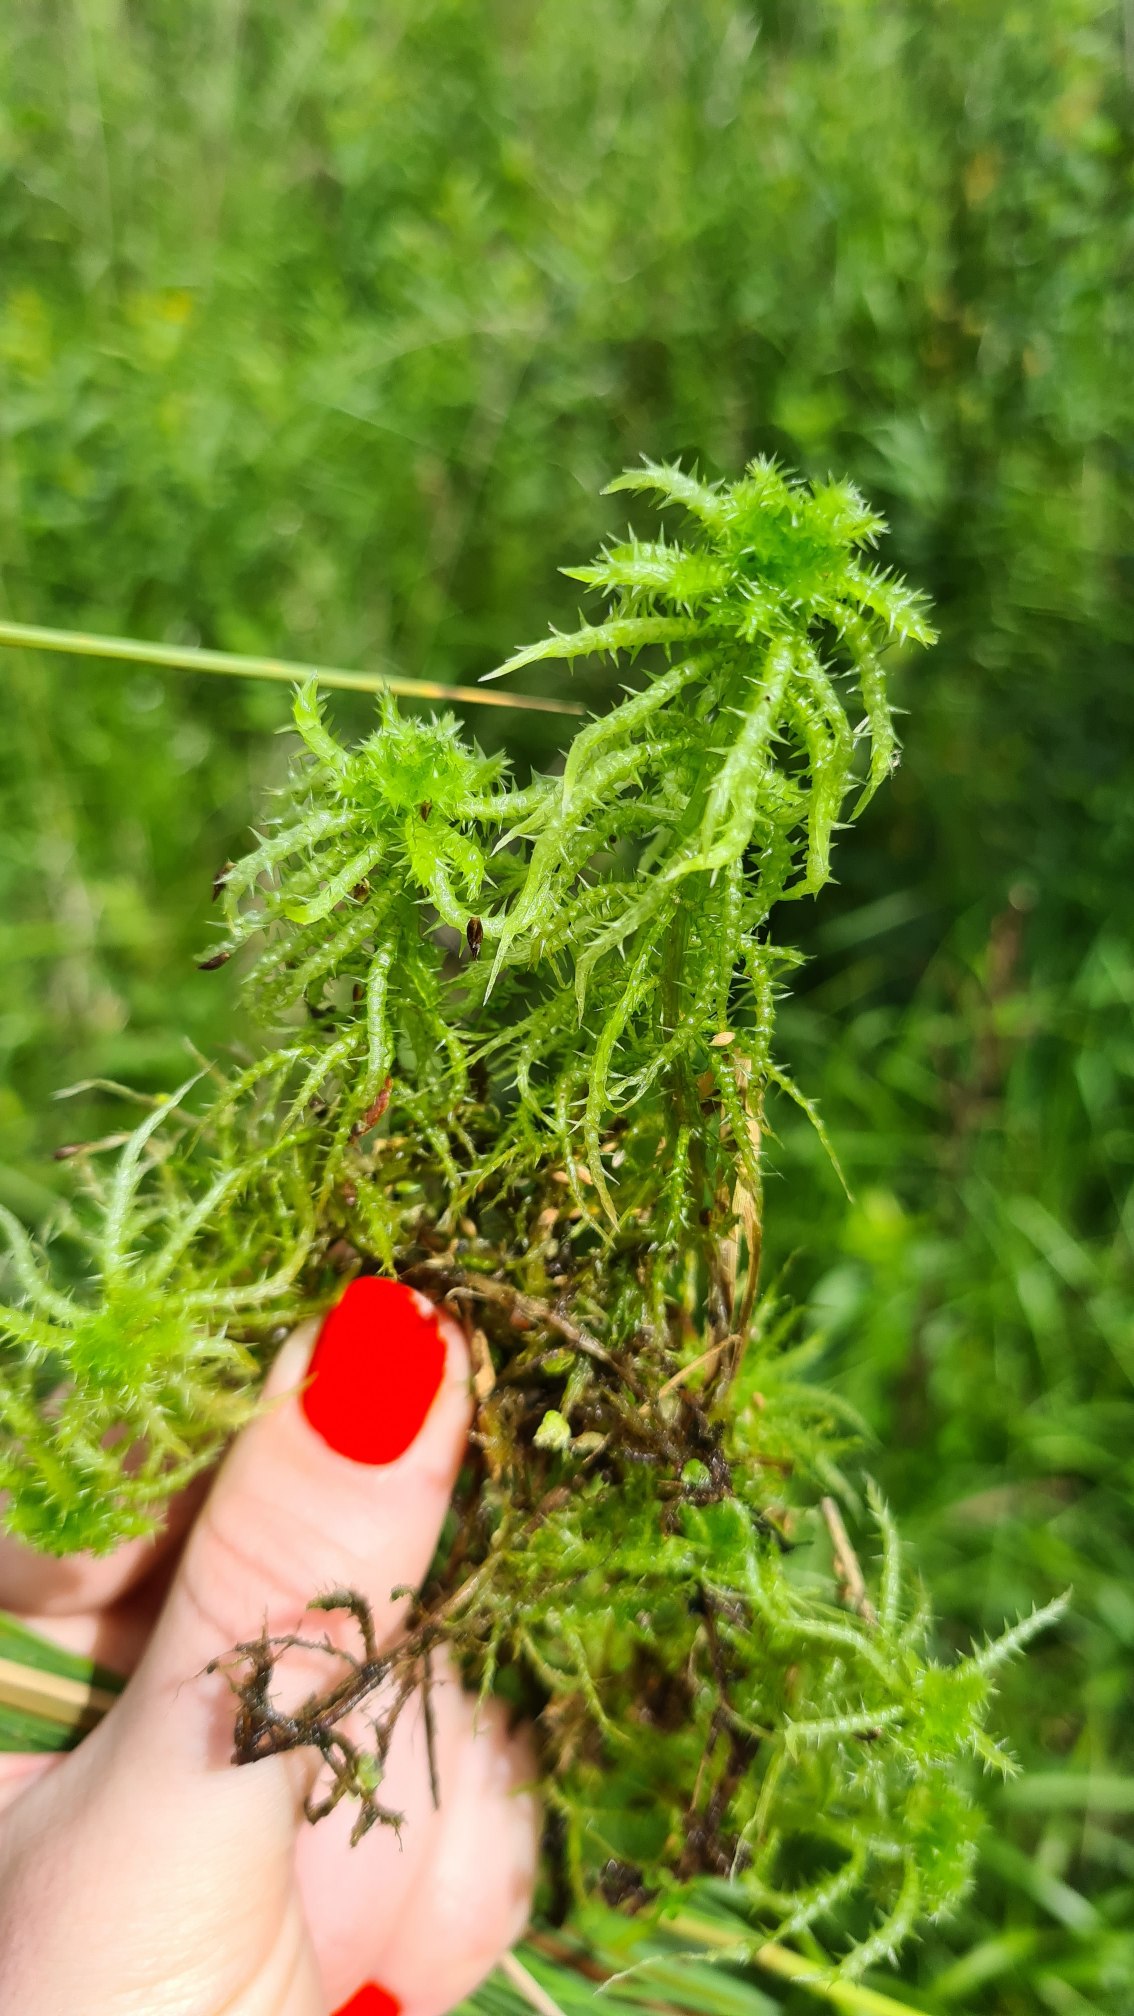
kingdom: Plantae
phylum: Bryophyta
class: Sphagnopsida
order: Sphagnales
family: Sphagnaceae
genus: Sphagnum
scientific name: Sphagnum squarrosum
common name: Udspærret tørvemos
